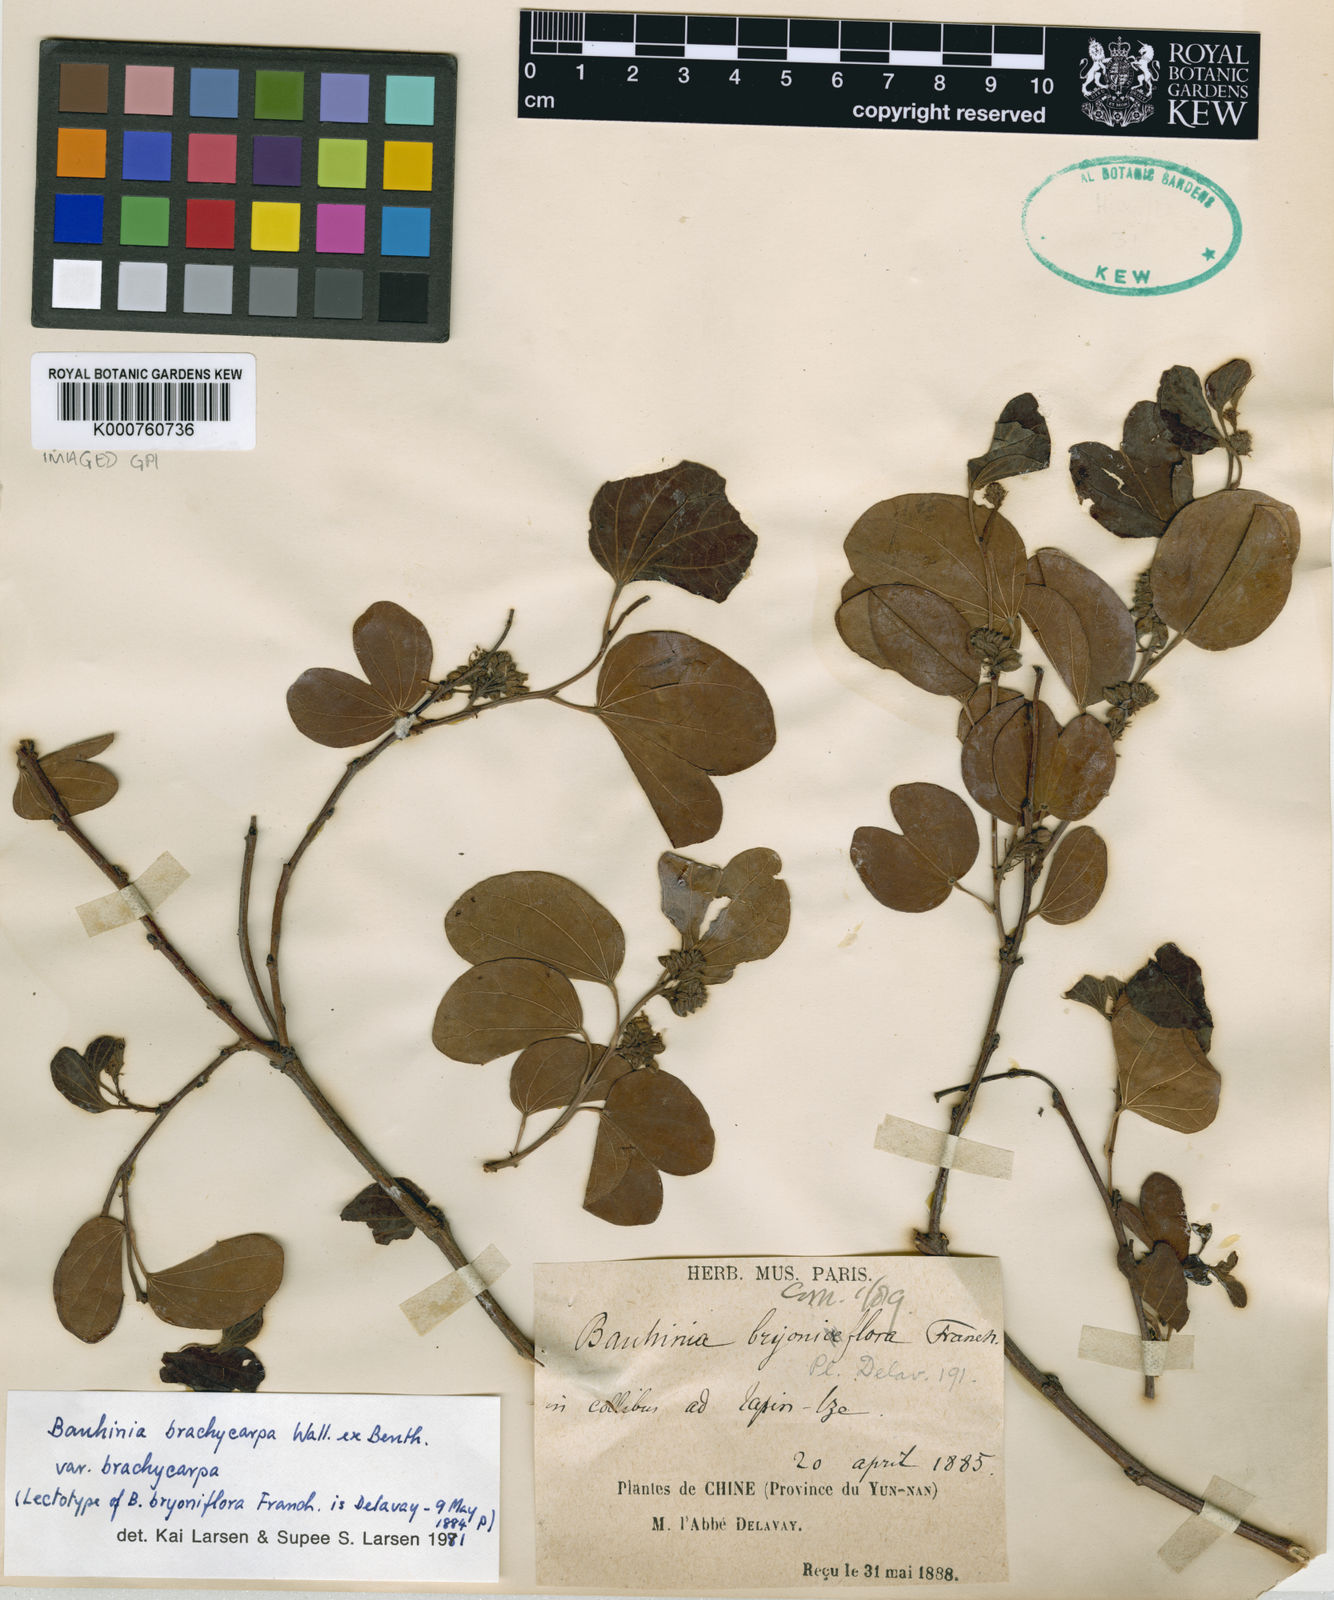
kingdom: Plantae
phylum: Tracheophyta
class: Magnoliopsida
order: Fabales
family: Fabaceae
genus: Bauhinia
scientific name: Bauhinia brachycarpa
